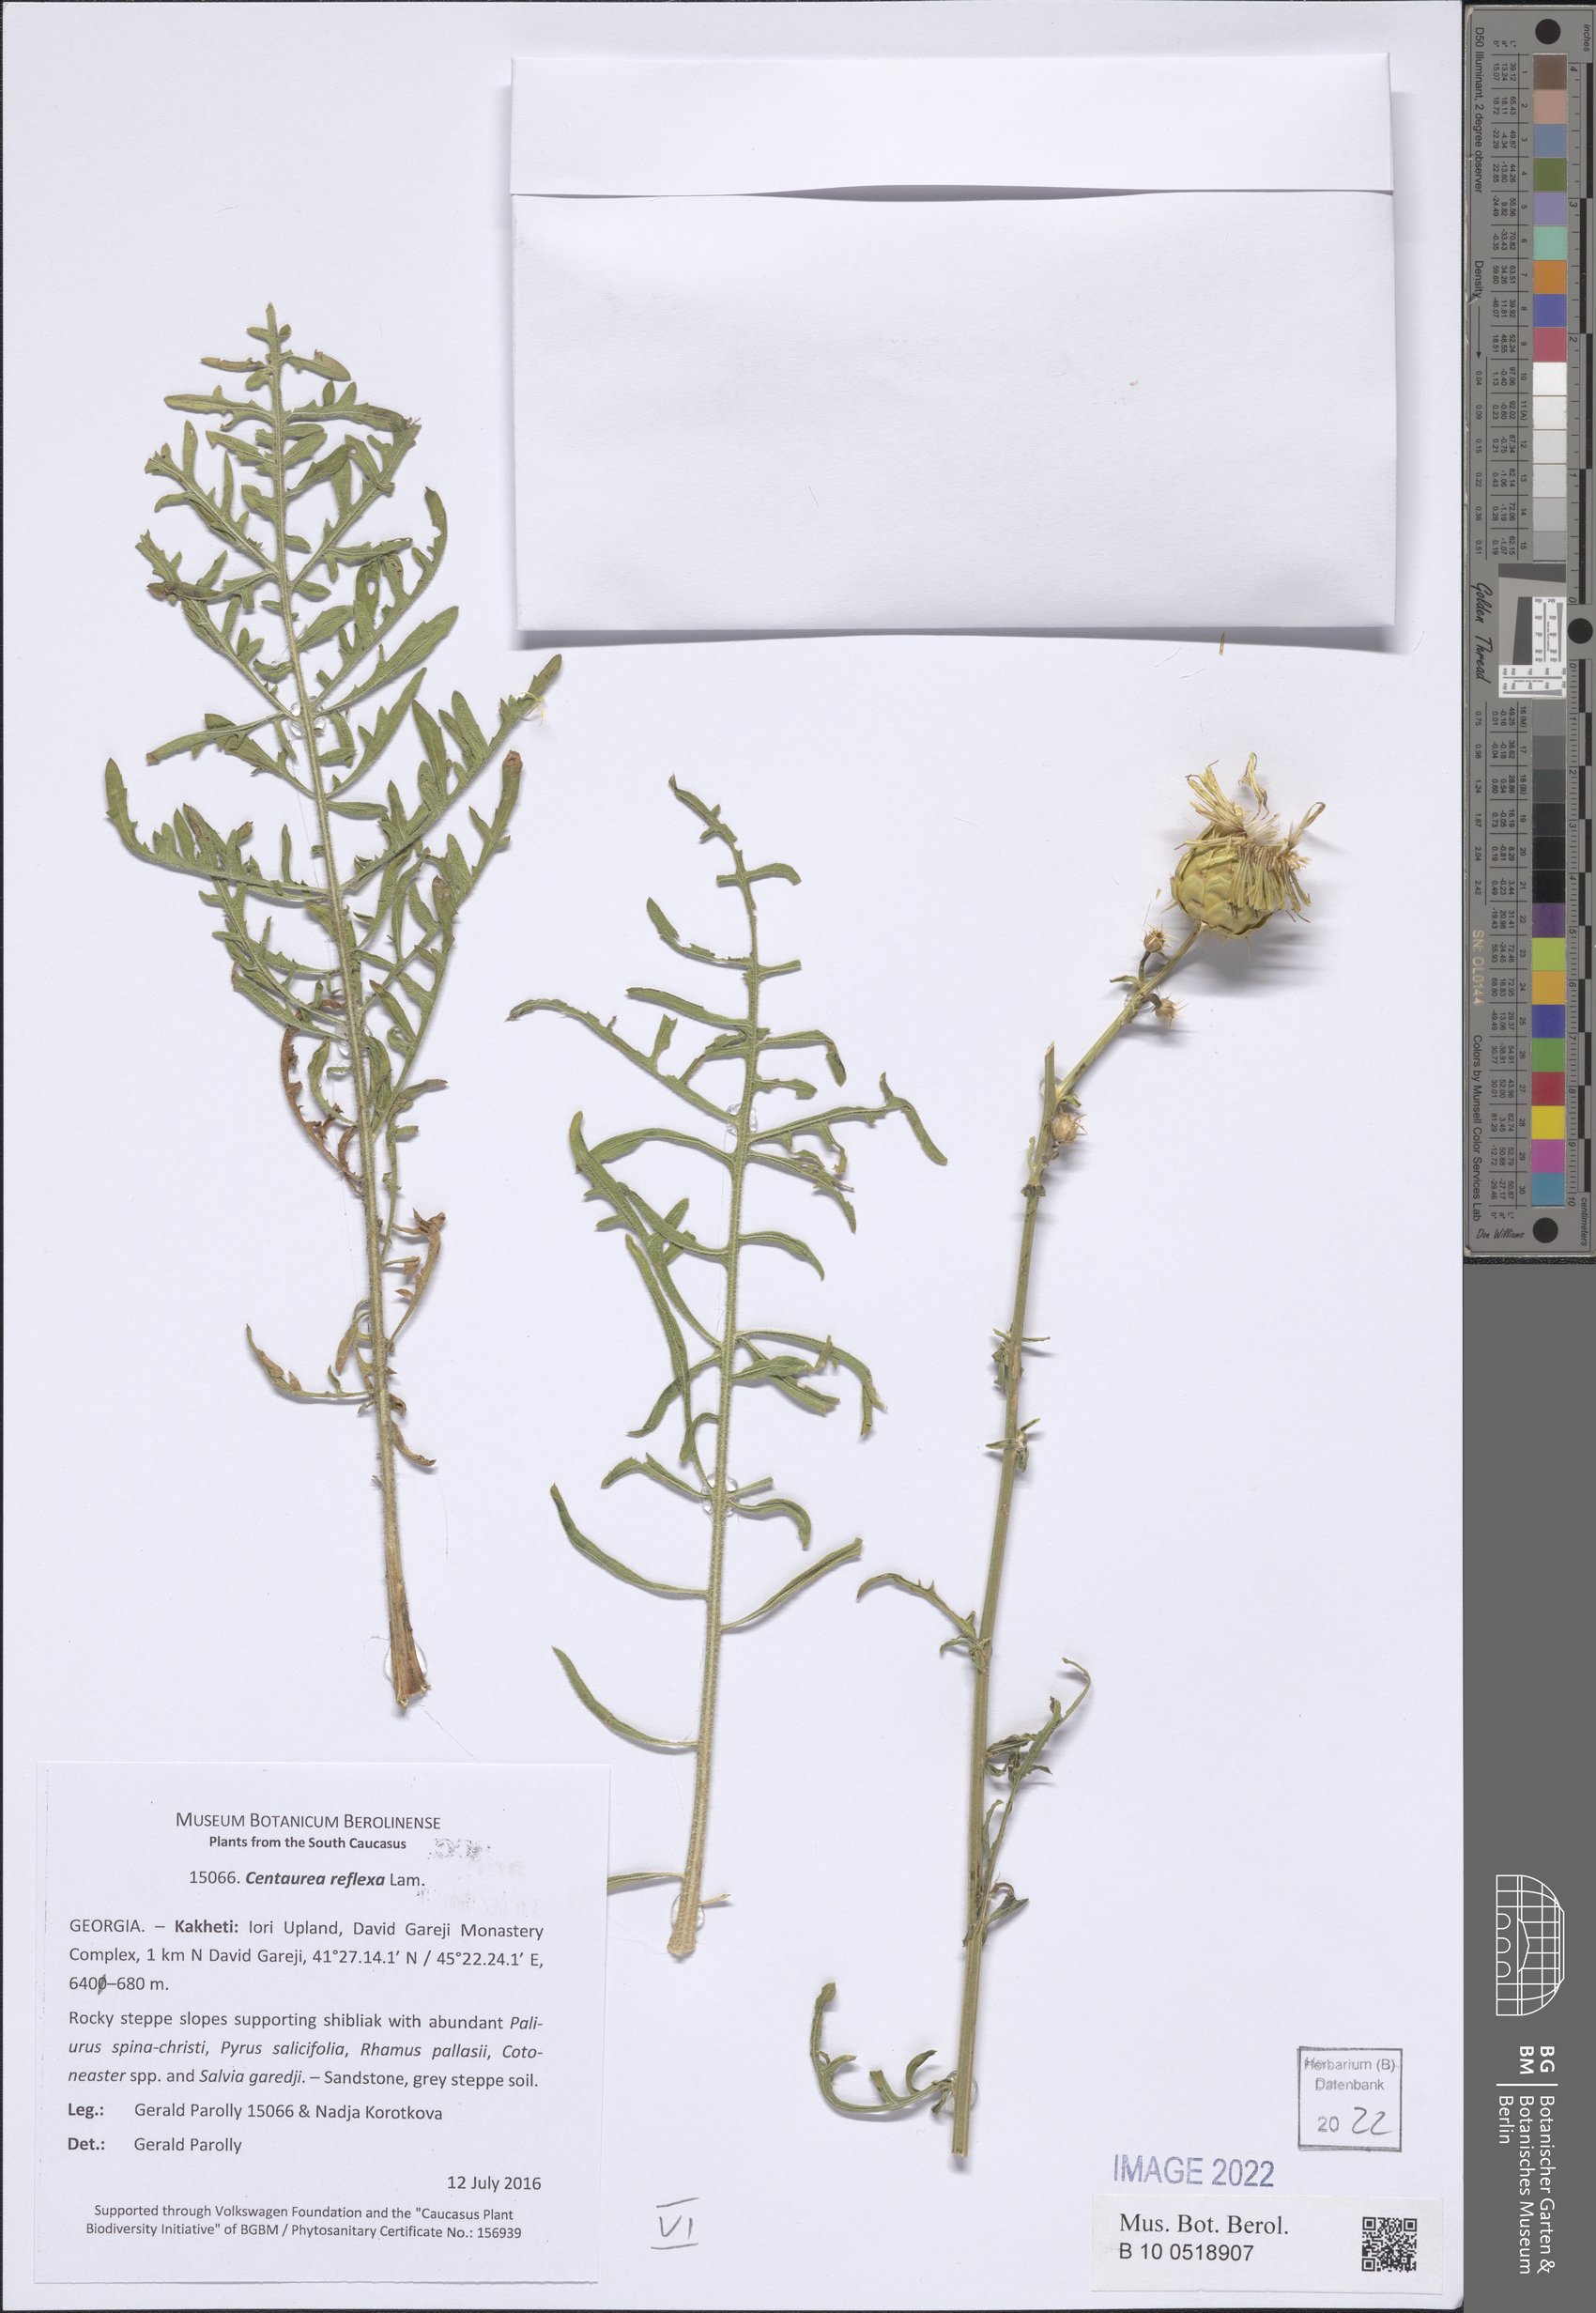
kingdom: Plantae
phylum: Tracheophyta
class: Magnoliopsida
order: Asterales
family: Asteraceae
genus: Centaurea
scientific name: Centaurea reflexa
